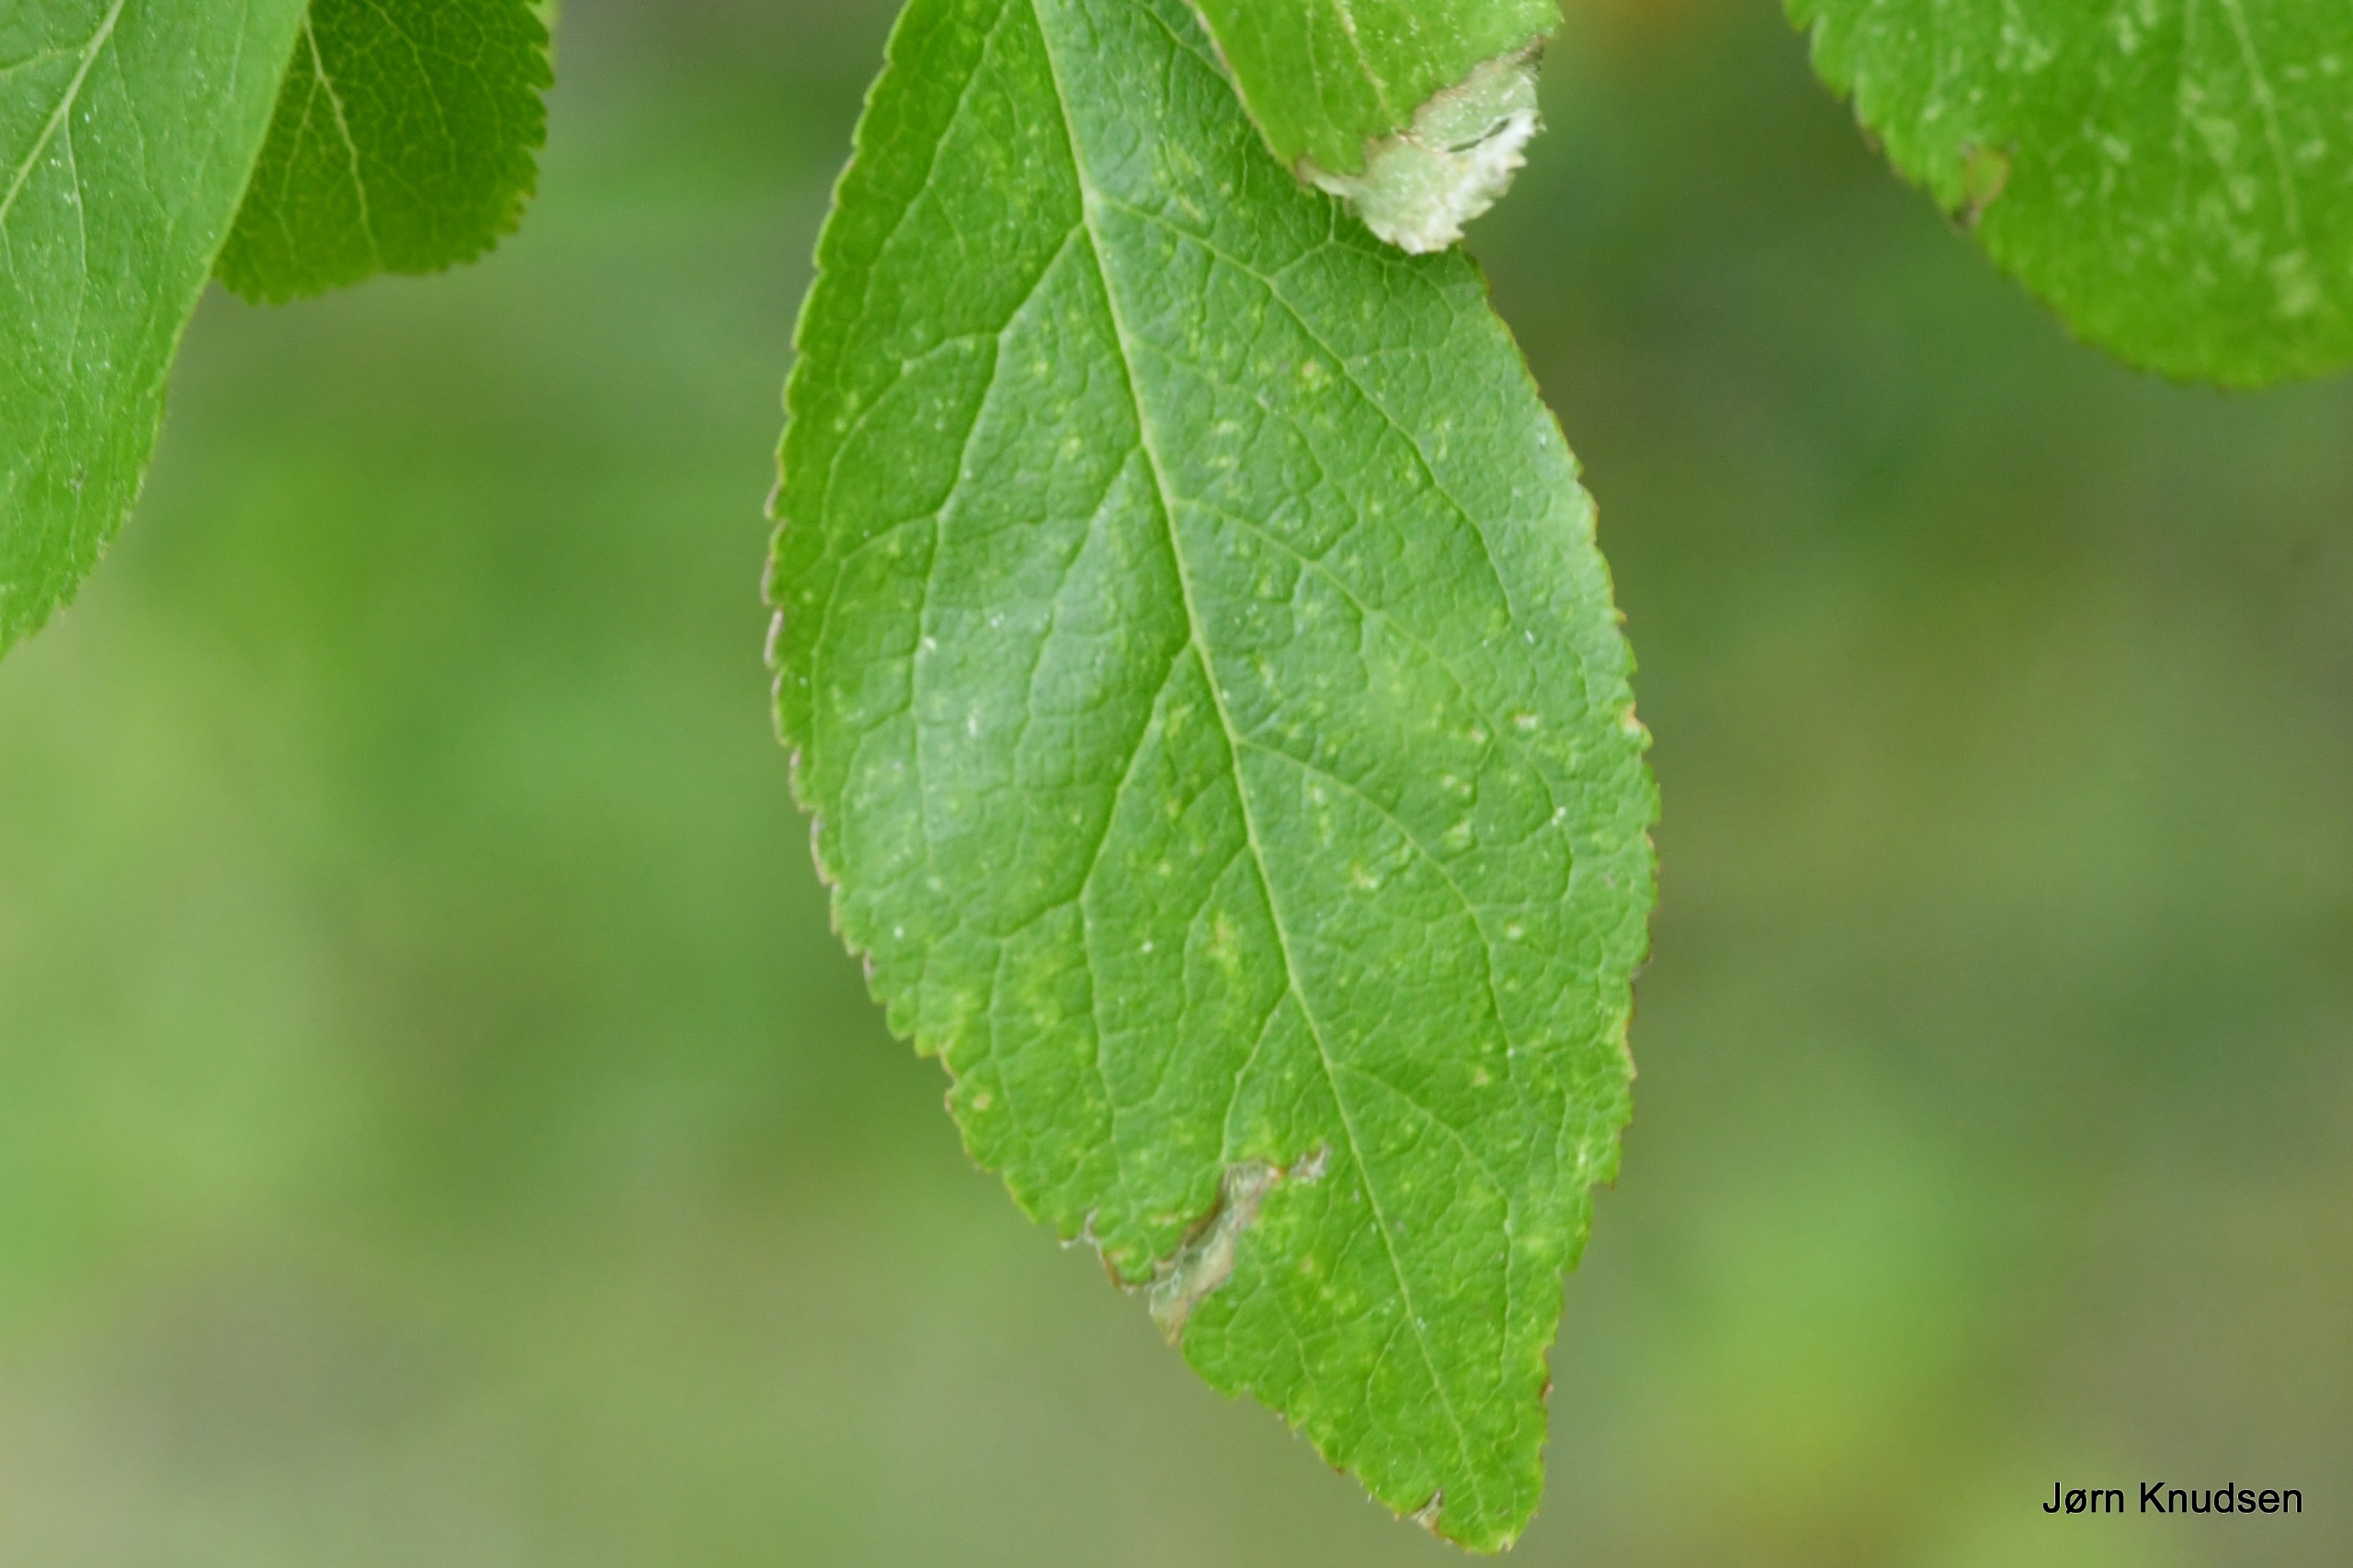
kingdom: Plantae
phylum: Tracheophyta
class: Magnoliopsida
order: Rosales
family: Rosaceae
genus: Prunus
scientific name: Prunus
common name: Blommeslægten
